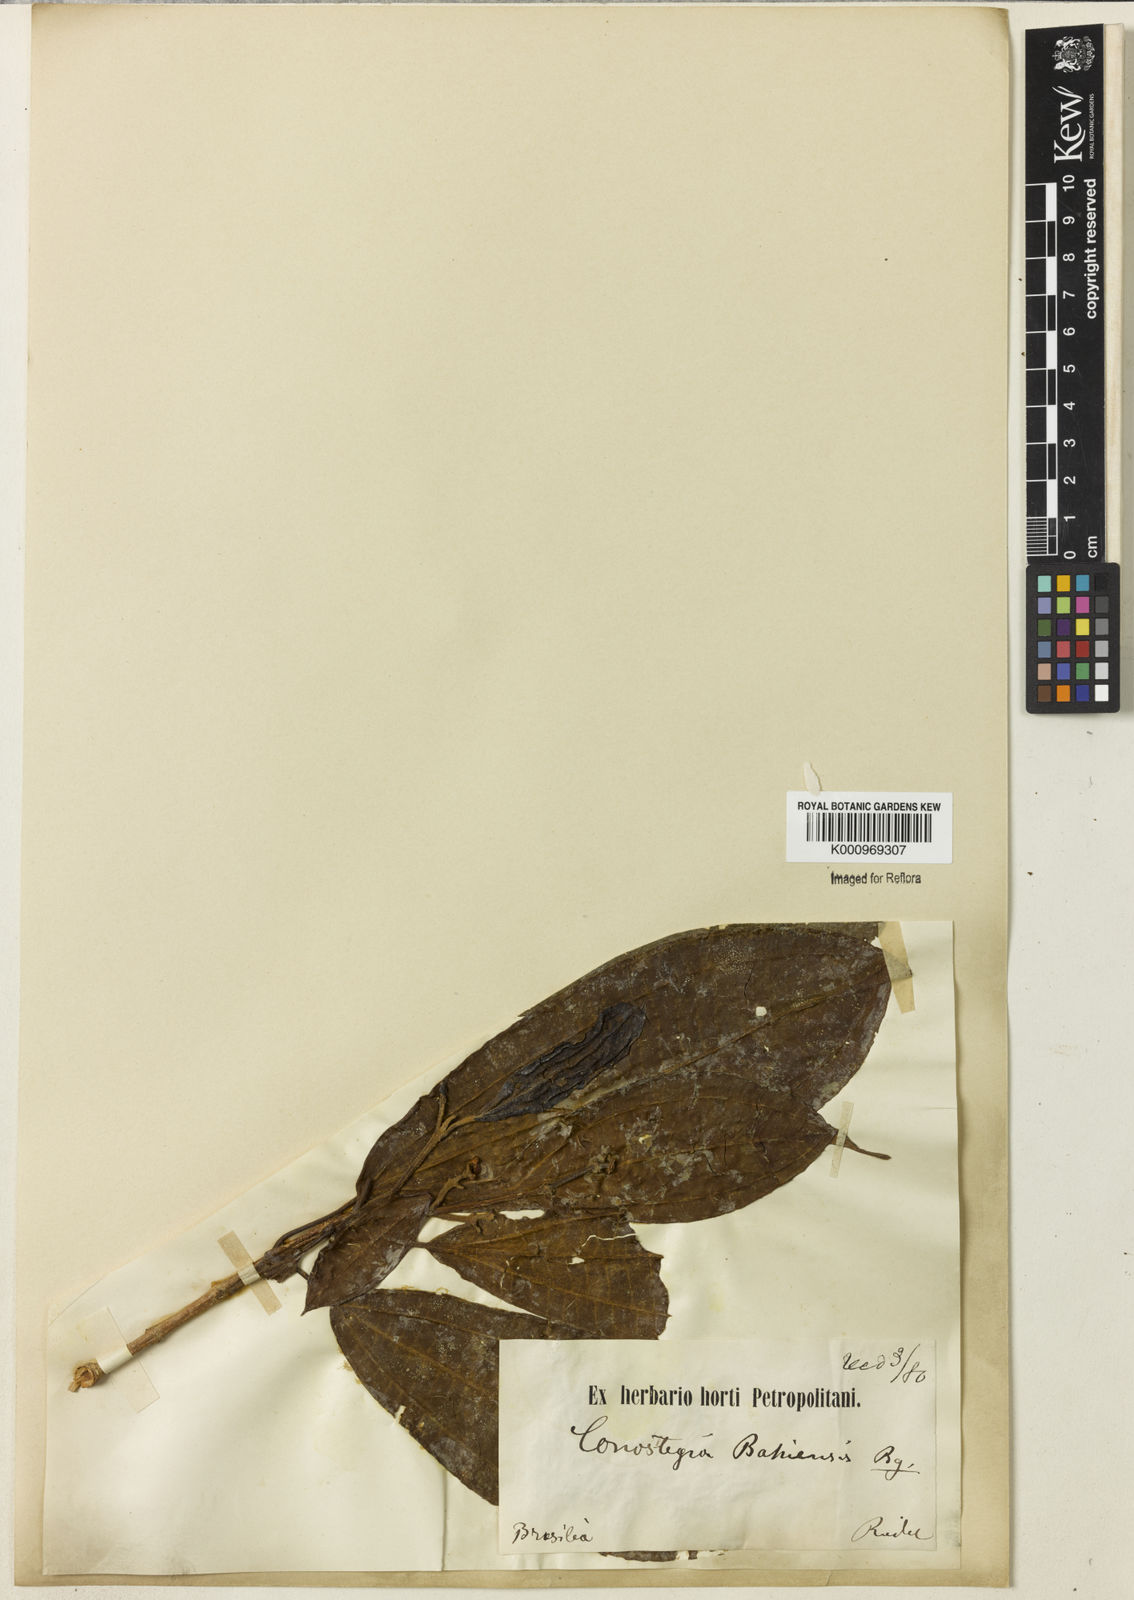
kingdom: Plantae
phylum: Tracheophyta
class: Magnoliopsida
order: Myrtales
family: Melastomataceae
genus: Miconia
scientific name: Miconia
